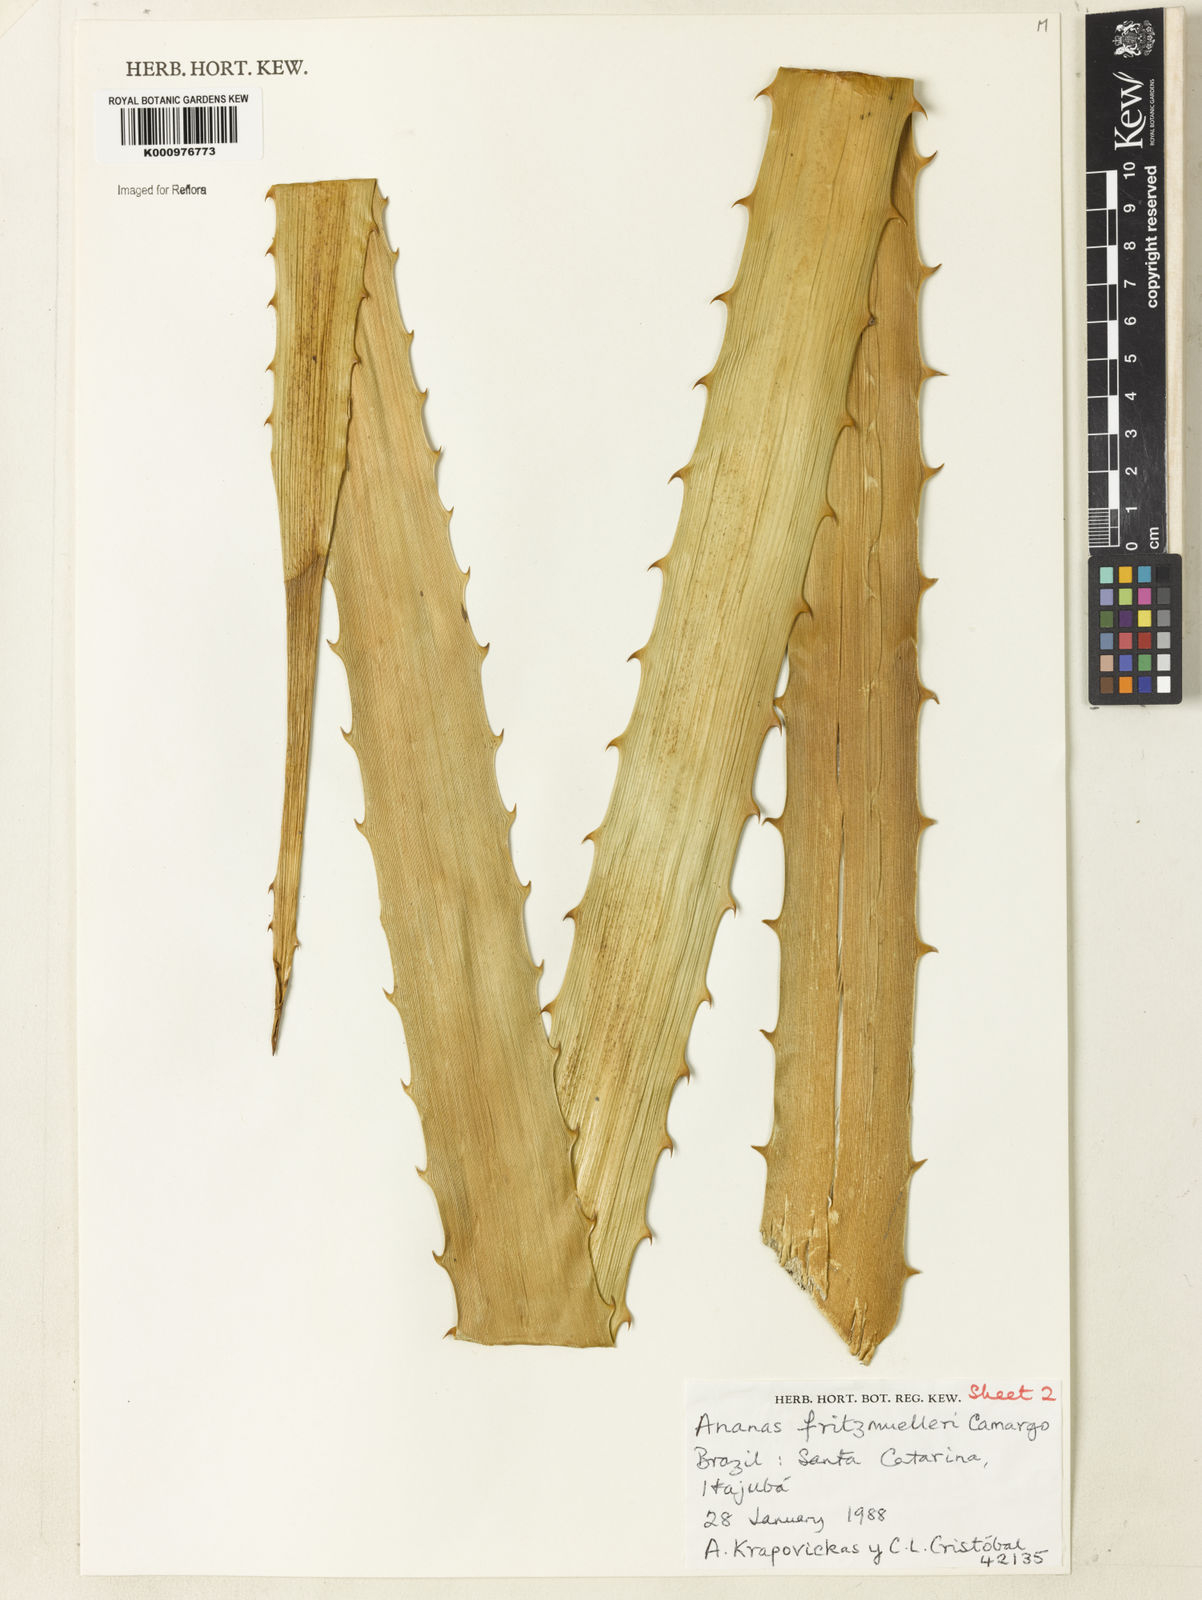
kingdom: Plantae
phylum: Tracheophyta
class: Liliopsida
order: Poales
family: Bromeliaceae
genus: Ananas
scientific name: Ananas comosus
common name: Pineapple
